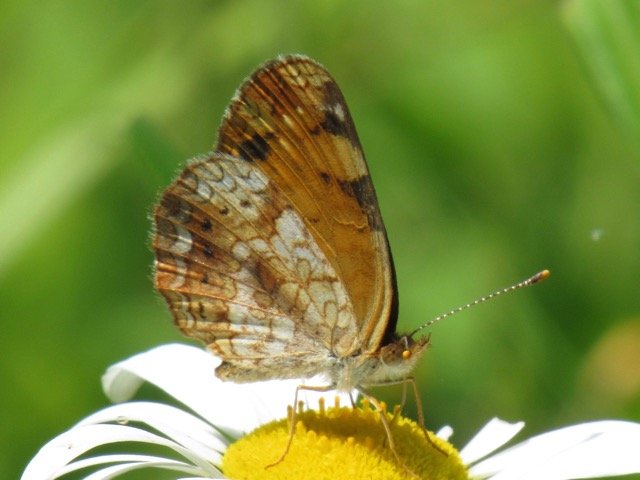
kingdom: Animalia
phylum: Arthropoda
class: Insecta
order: Lepidoptera
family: Nymphalidae
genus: Phyciodes
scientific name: Phyciodes tharos
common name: Pearl Crescent
